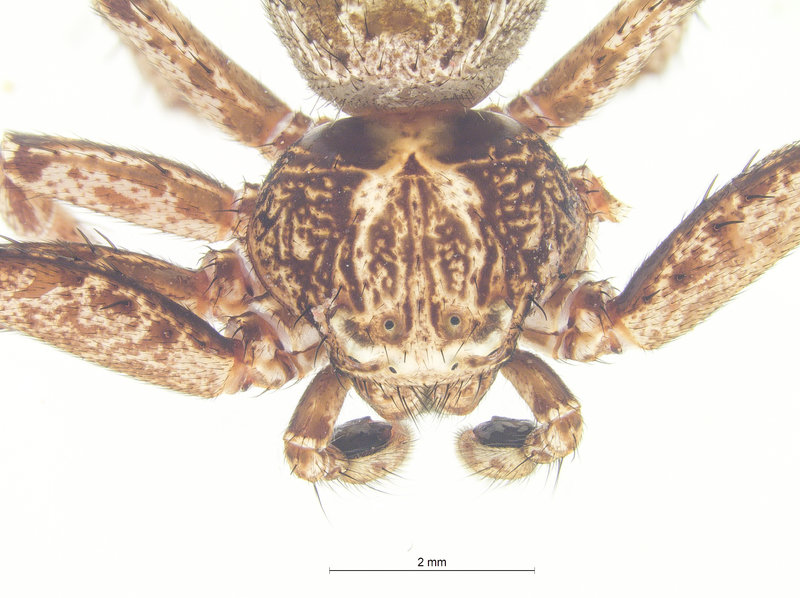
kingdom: Animalia
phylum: Arthropoda
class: Arachnida
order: Araneae
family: Thomisidae
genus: Xysticus
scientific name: Xysticus acerbus
